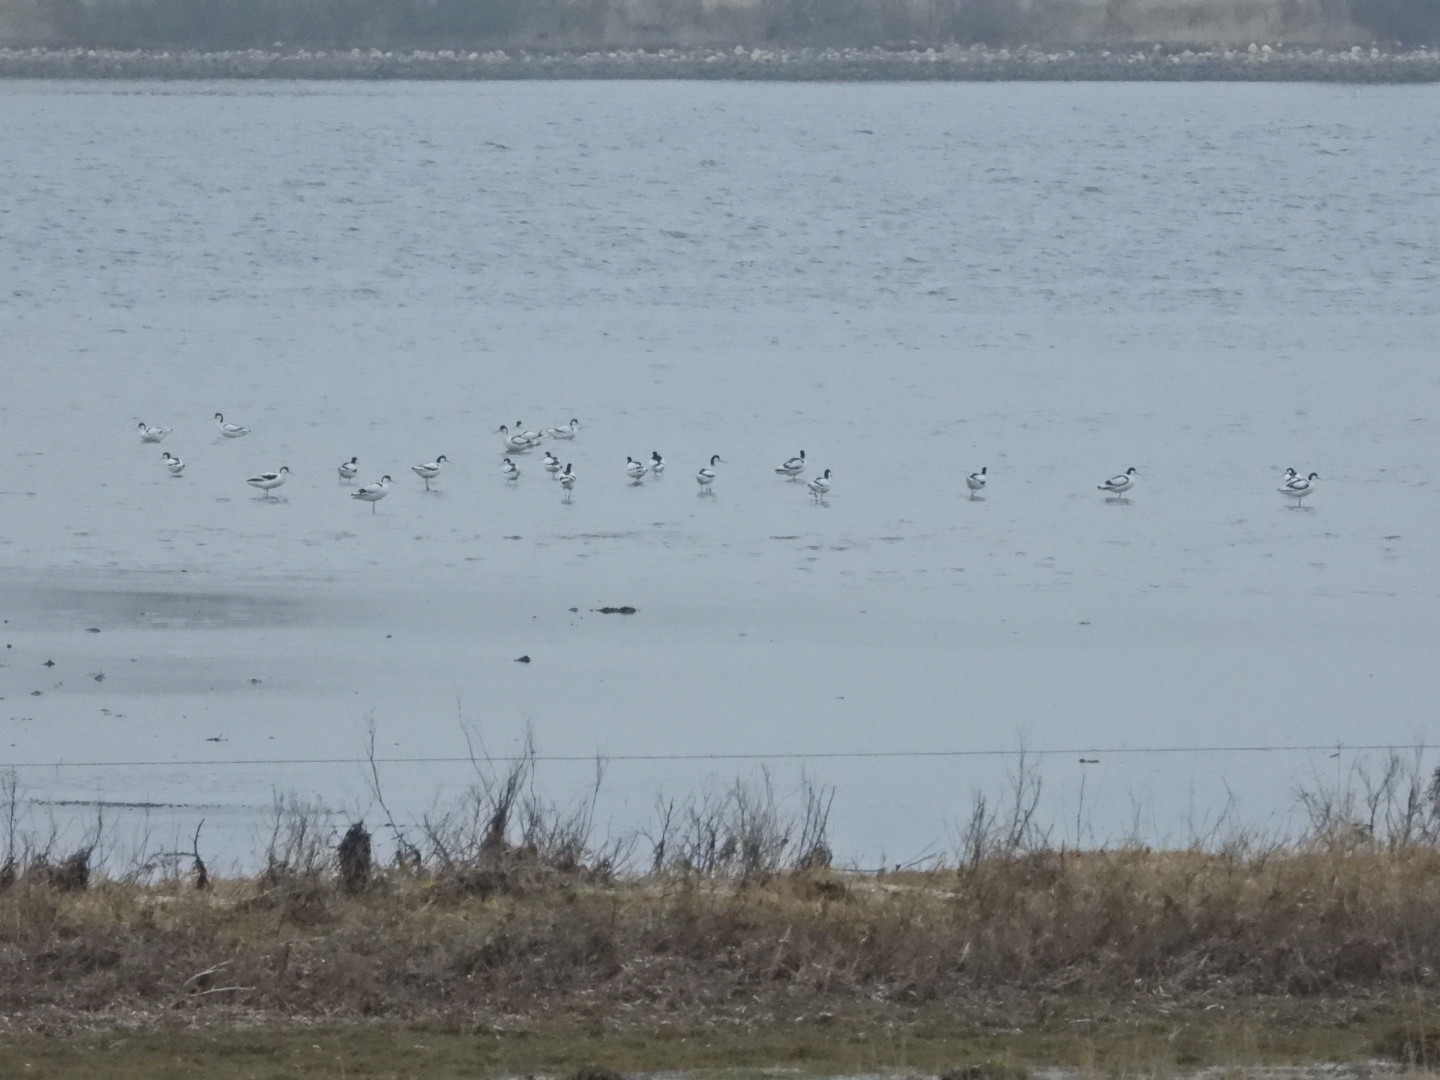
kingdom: Animalia
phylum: Chordata
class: Aves
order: Charadriiformes
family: Recurvirostridae
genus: Recurvirostra
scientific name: Recurvirostra avosetta
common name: Klyde
